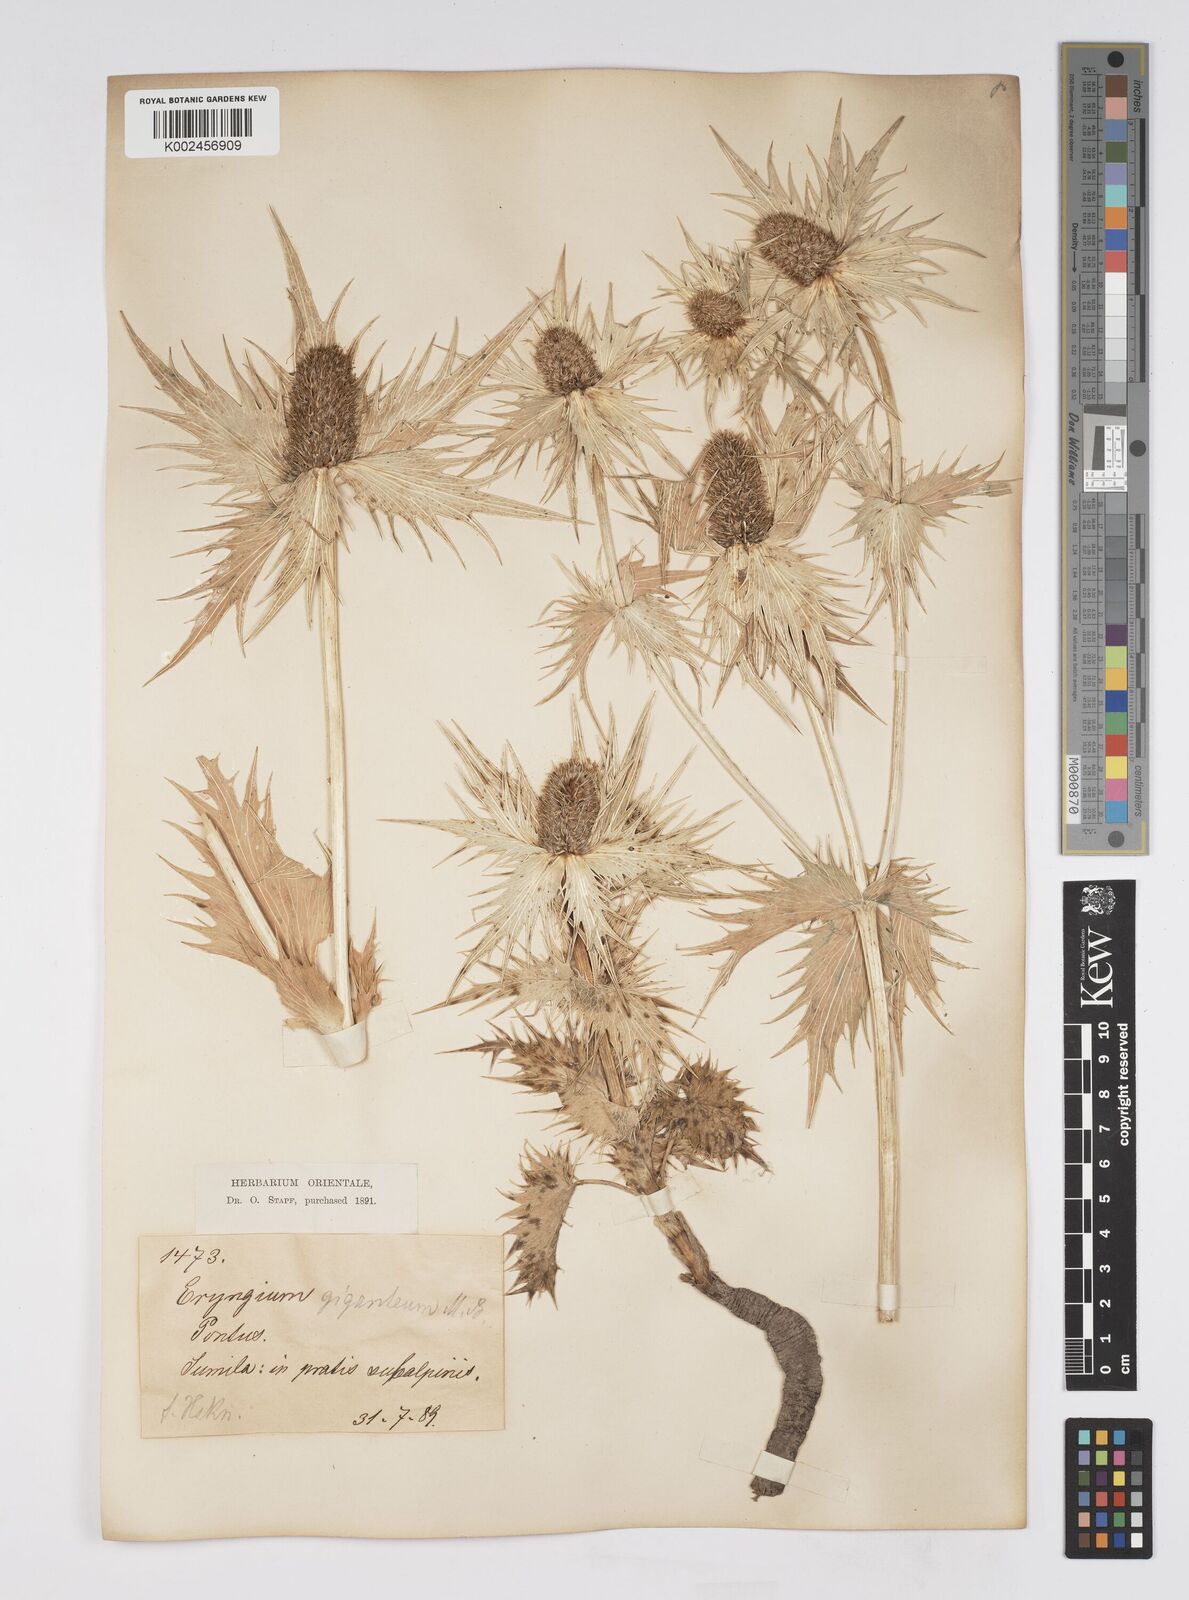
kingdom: Plantae
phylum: Tracheophyta
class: Magnoliopsida
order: Apiales
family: Apiaceae
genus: Eryngium
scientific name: Eryngium giganteum
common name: Tall eryngo
